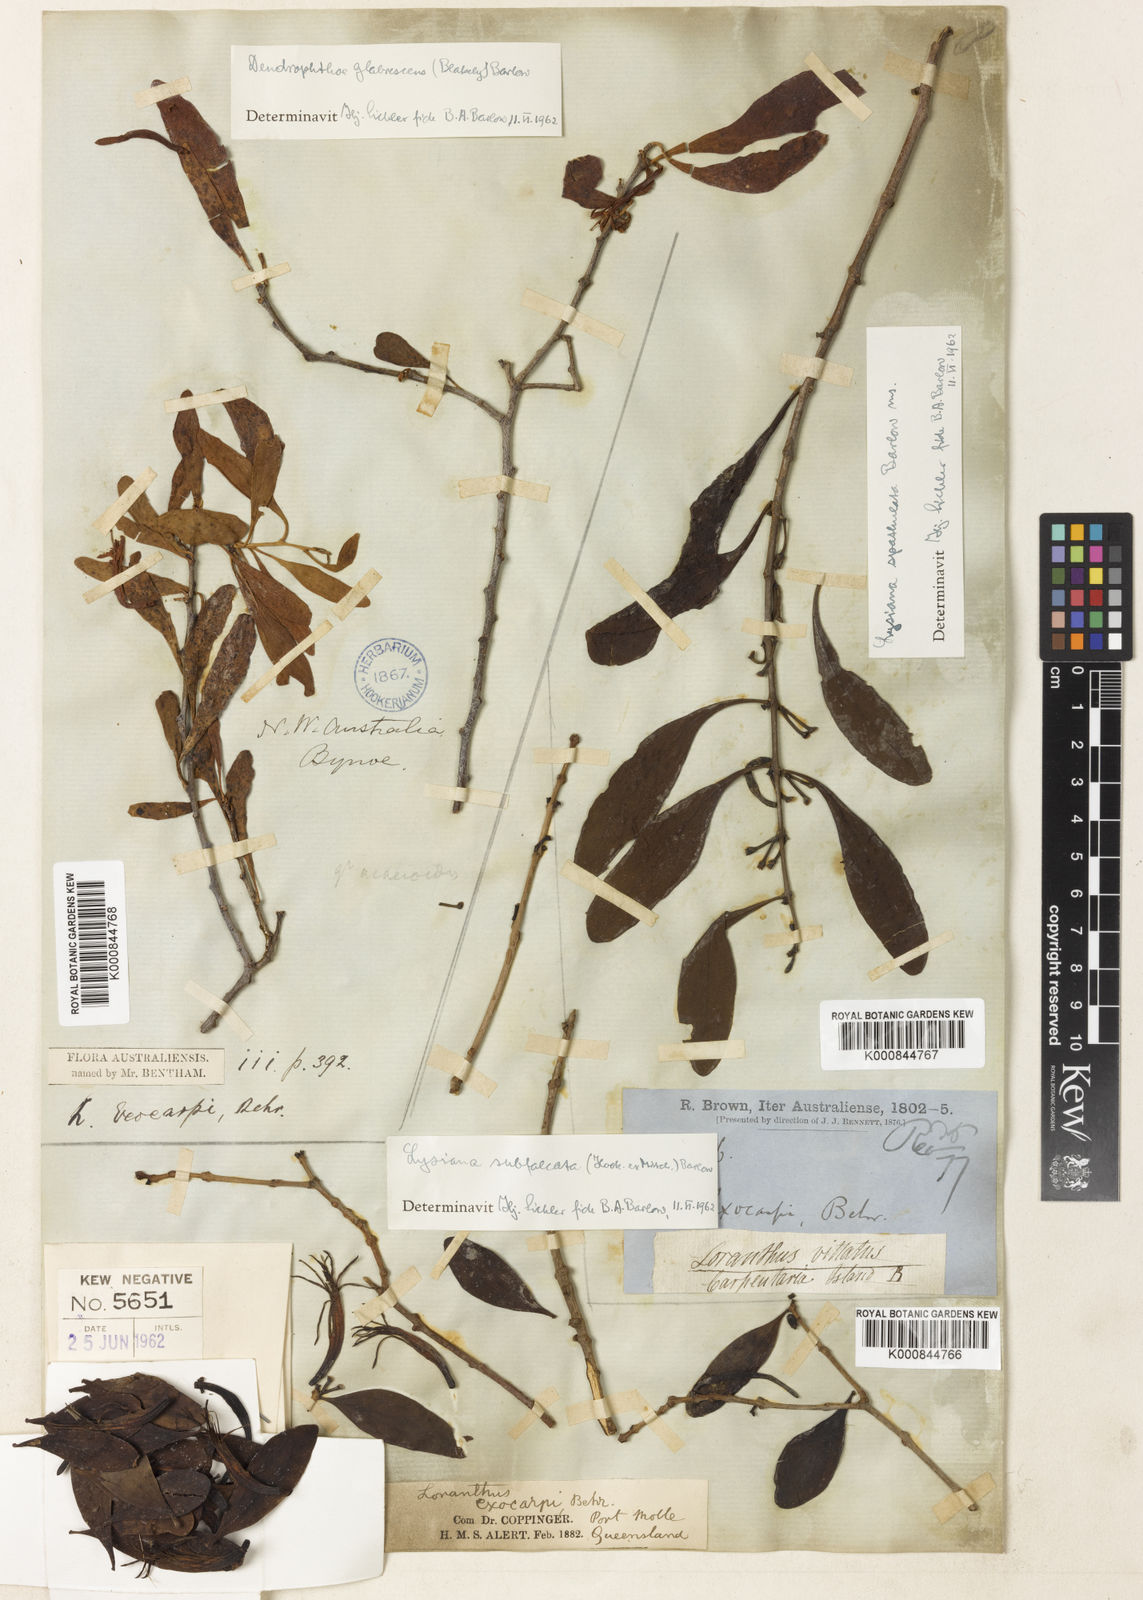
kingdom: Plantae
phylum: Tracheophyta
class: Magnoliopsida
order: Santalales
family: Loranthaceae
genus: Lysiana
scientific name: Lysiana exocarpi
